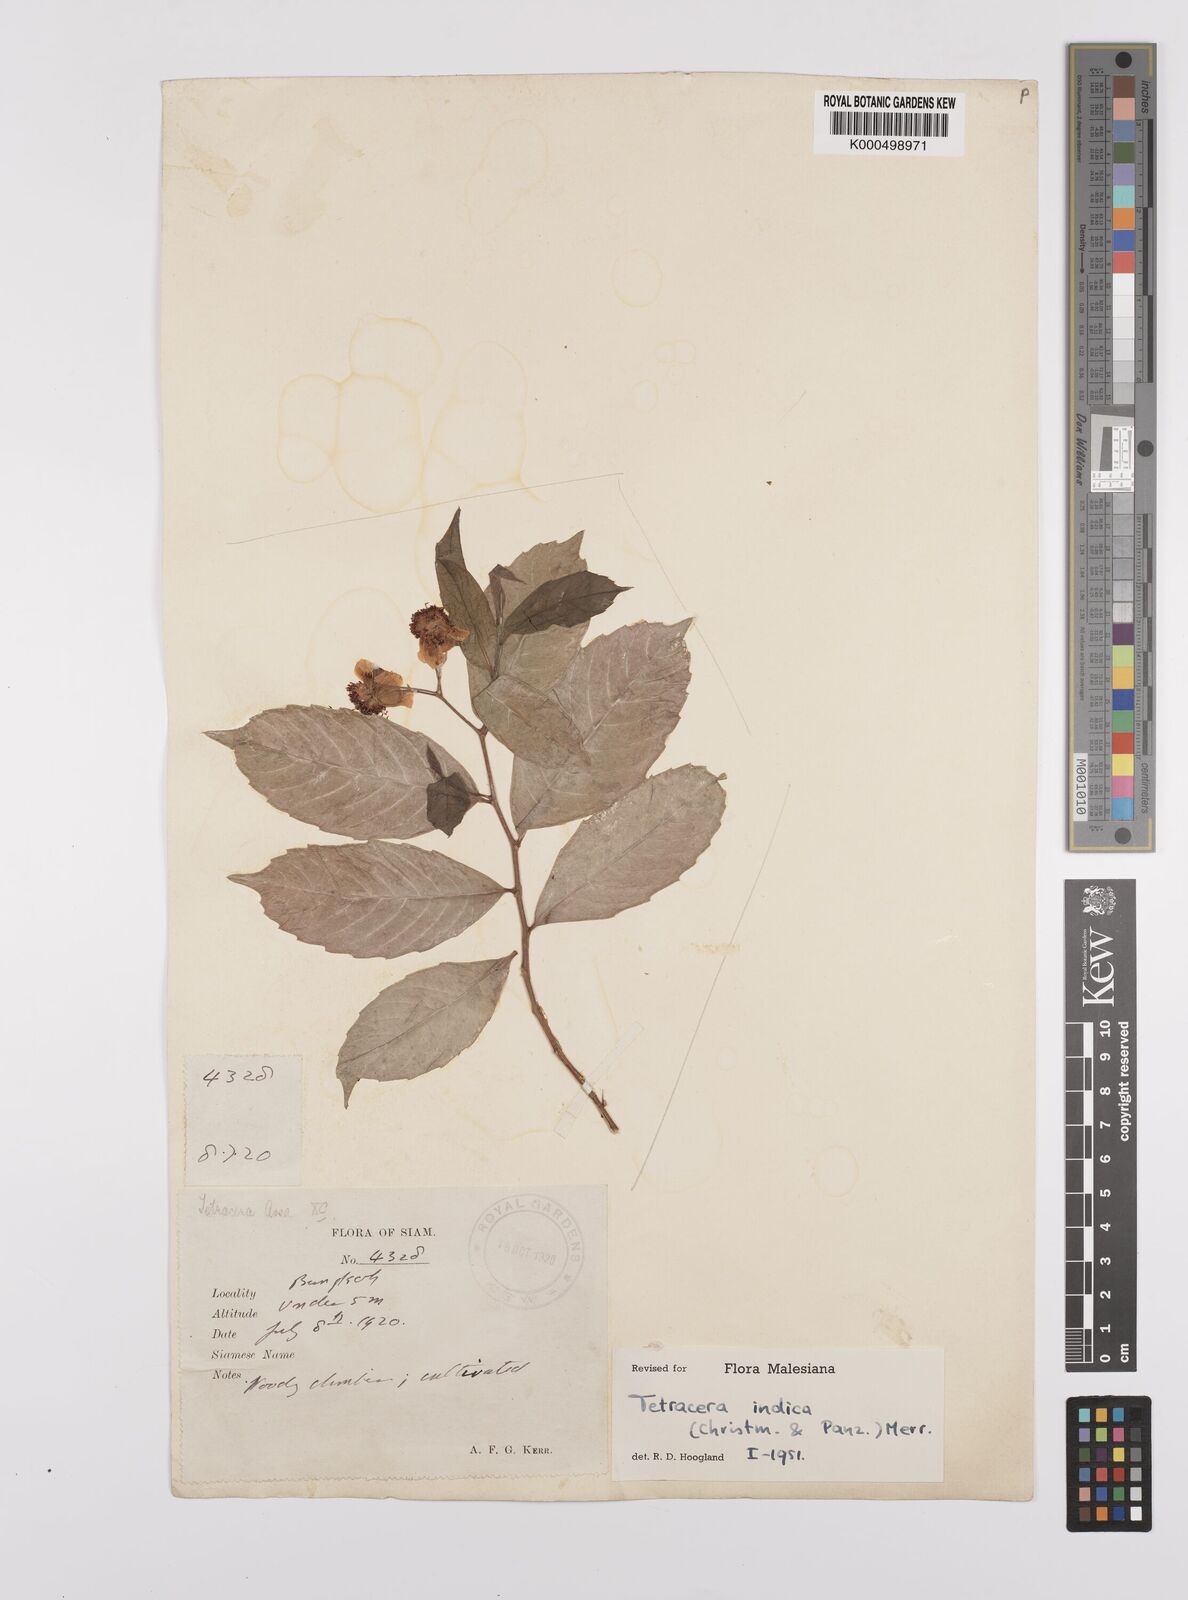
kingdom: Plantae
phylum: Tracheophyta
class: Magnoliopsida
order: Dilleniales
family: Dilleniaceae
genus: Tetracera
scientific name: Tetracera indica
